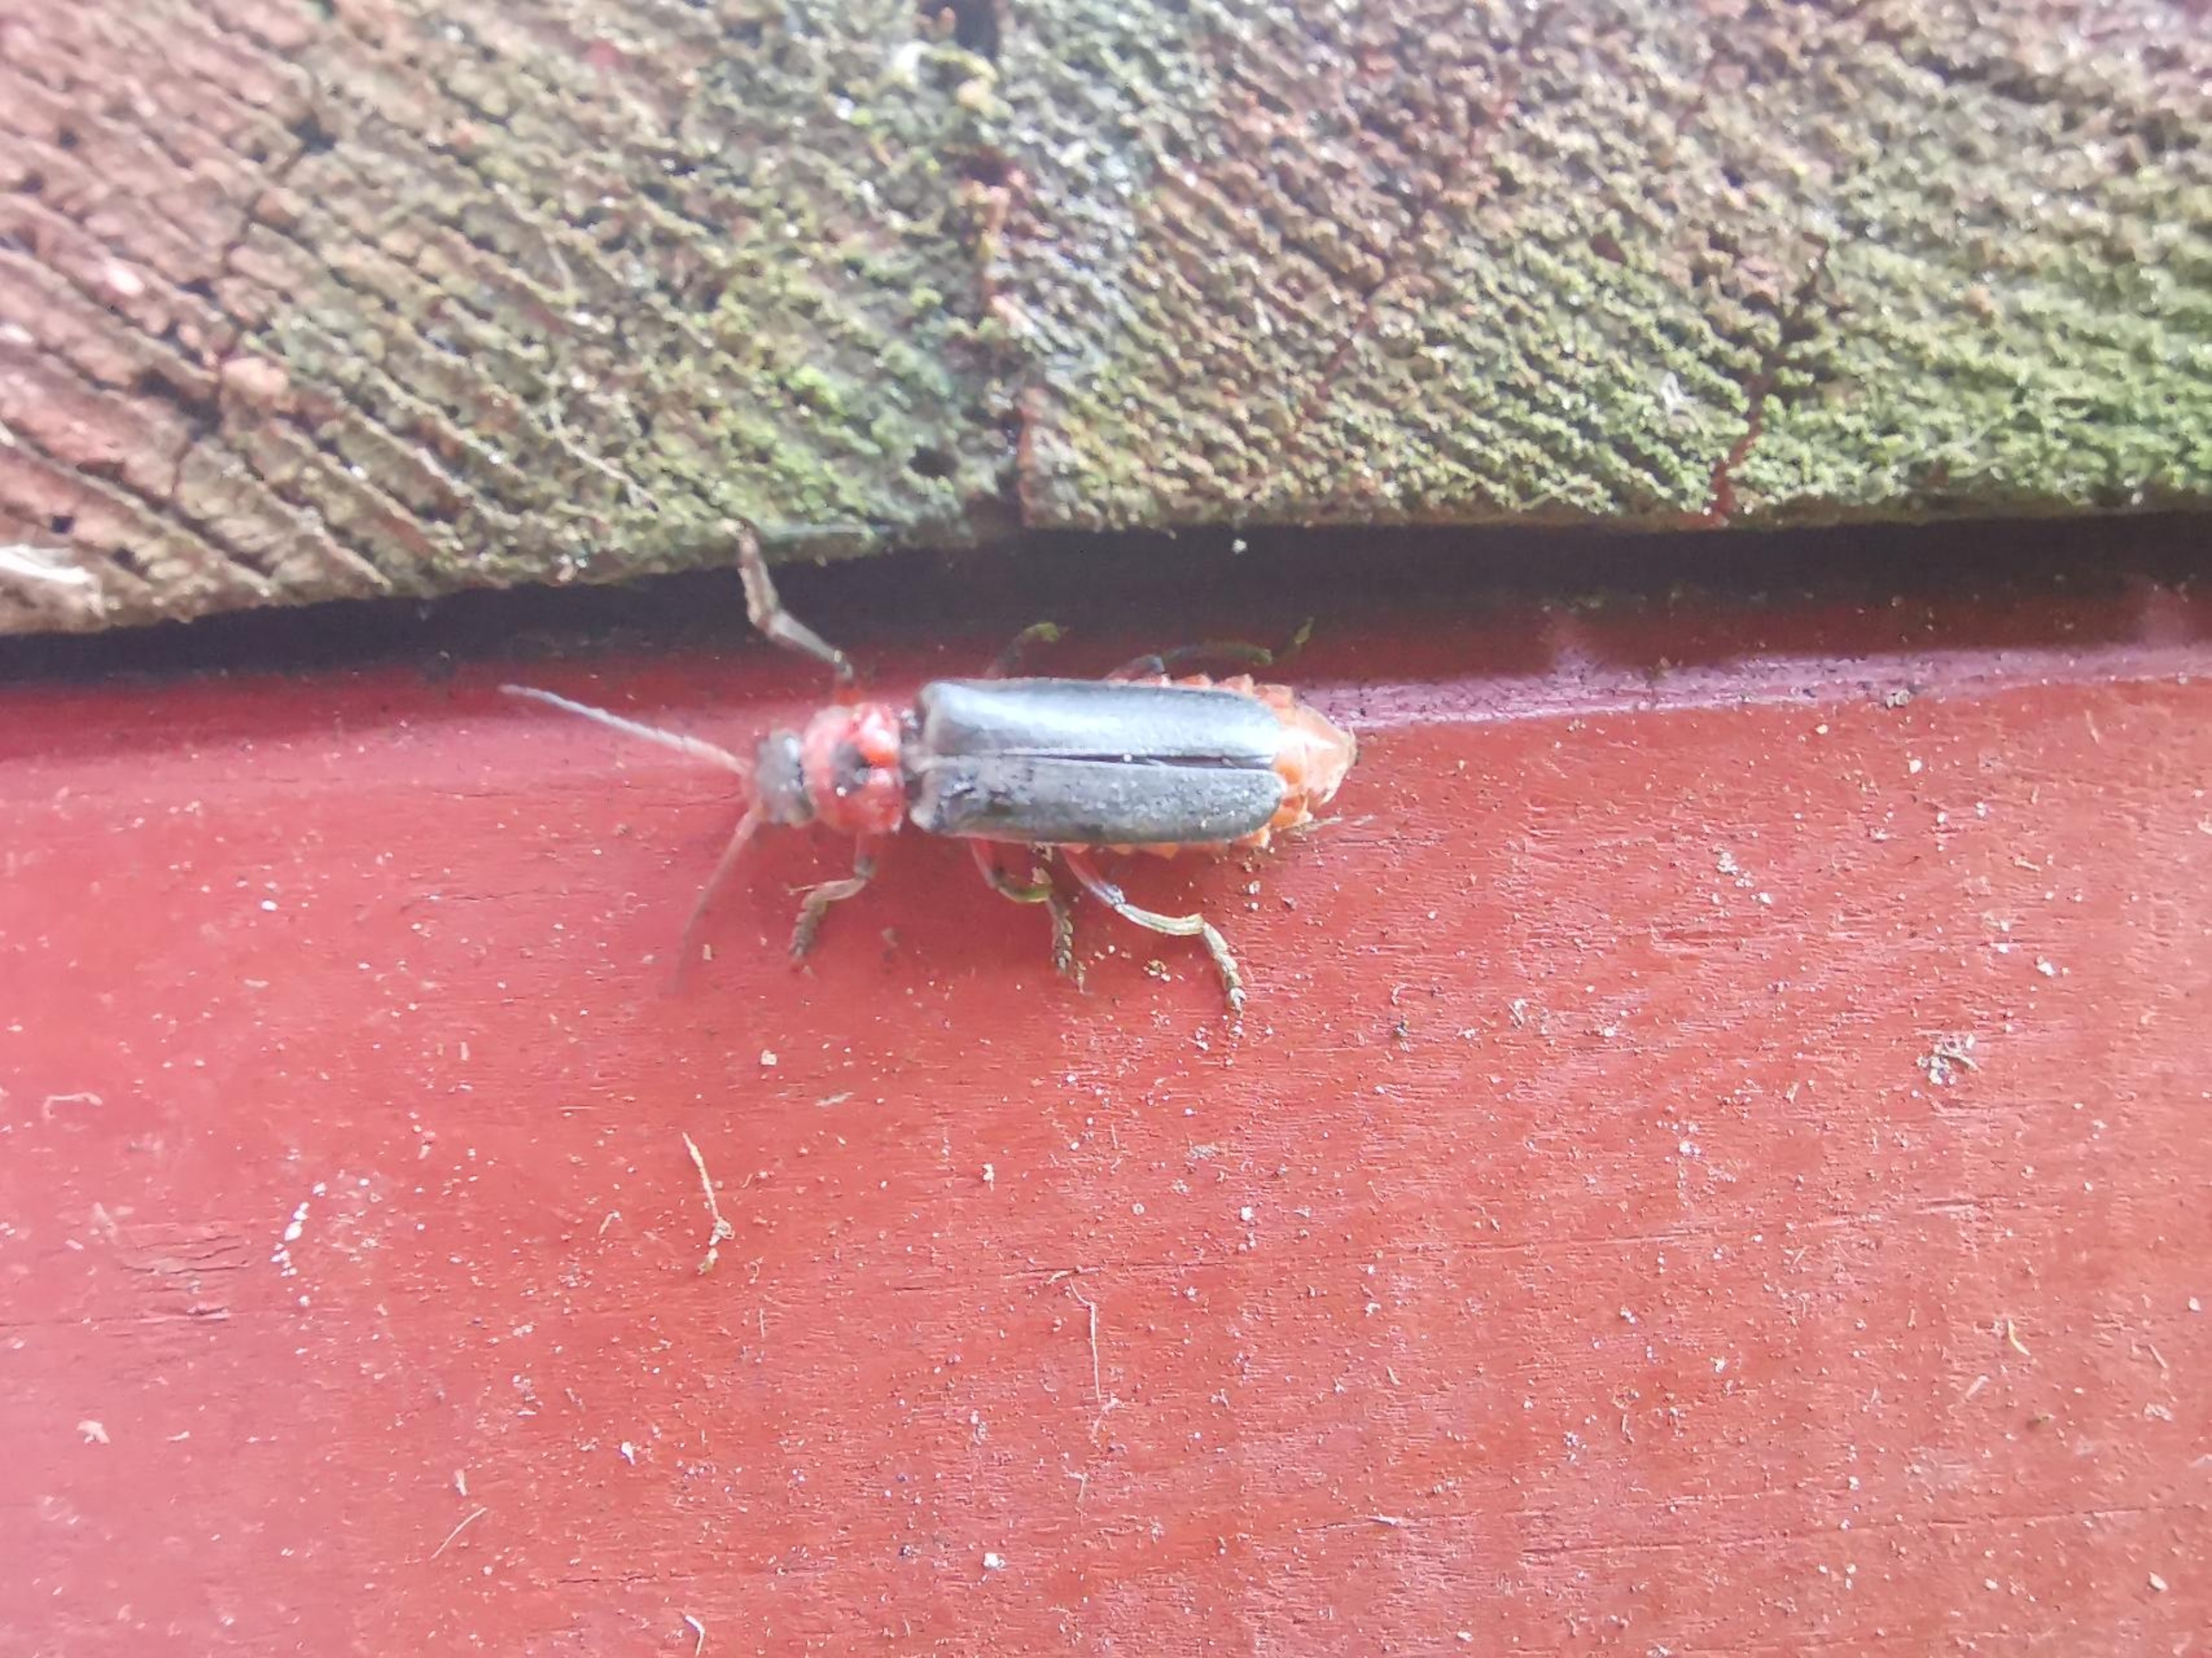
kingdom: Animalia
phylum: Arthropoda
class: Insecta
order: Coleoptera
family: Cantharidae
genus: Cantharis
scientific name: Cantharis rustica
